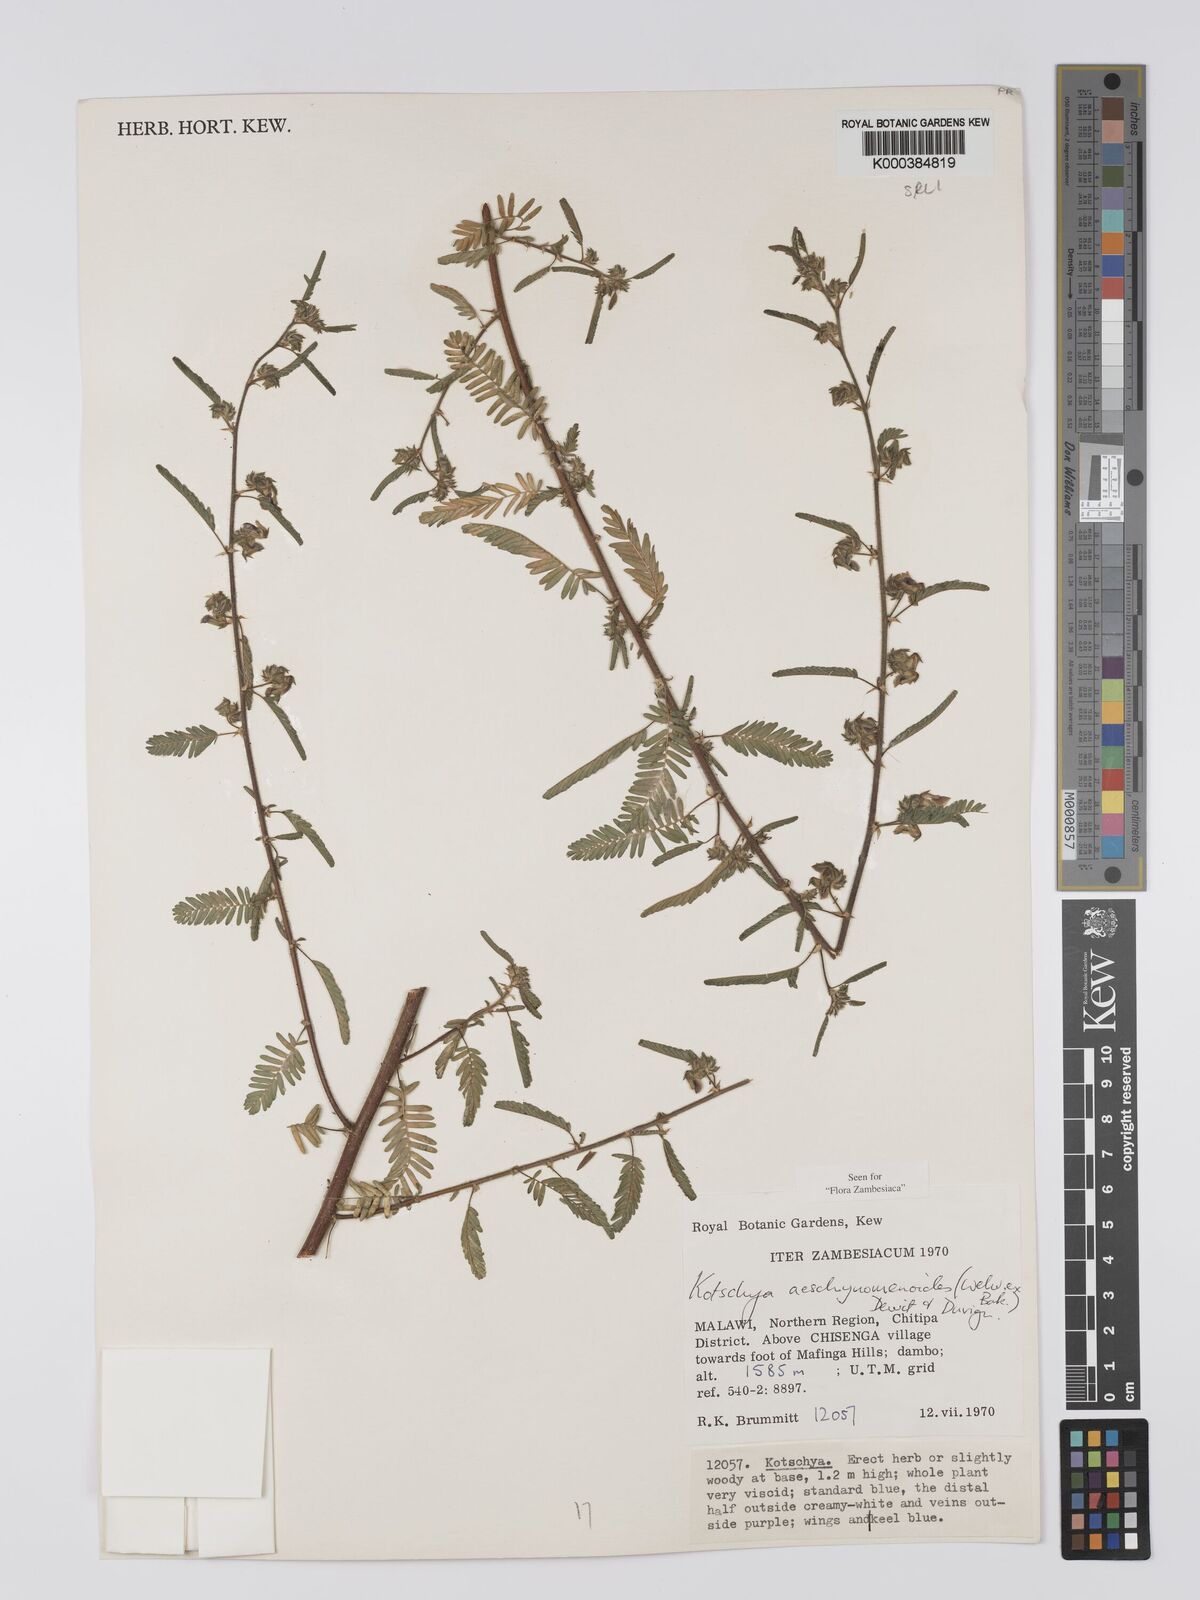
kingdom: Plantae
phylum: Tracheophyta
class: Magnoliopsida
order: Fabales
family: Fabaceae
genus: Kotschya
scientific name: Kotschya aeschynomenoides
